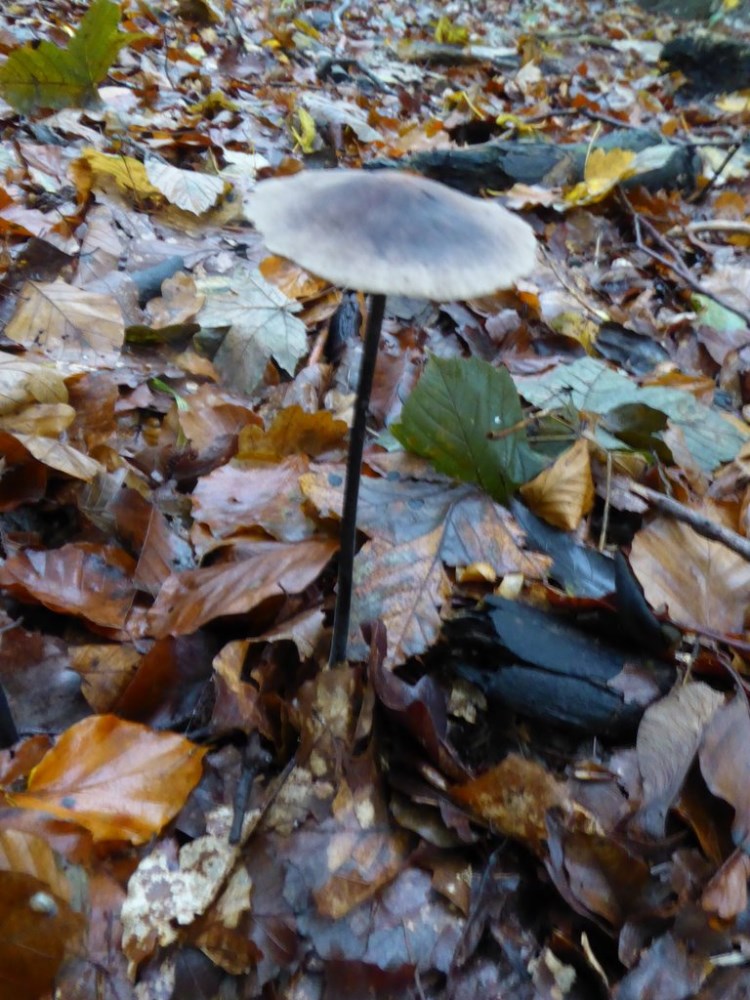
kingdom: Fungi
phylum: Basidiomycota
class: Agaricomycetes
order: Agaricales
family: Omphalotaceae
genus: Mycetinis
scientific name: Mycetinis alliaceus
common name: stor løghat
